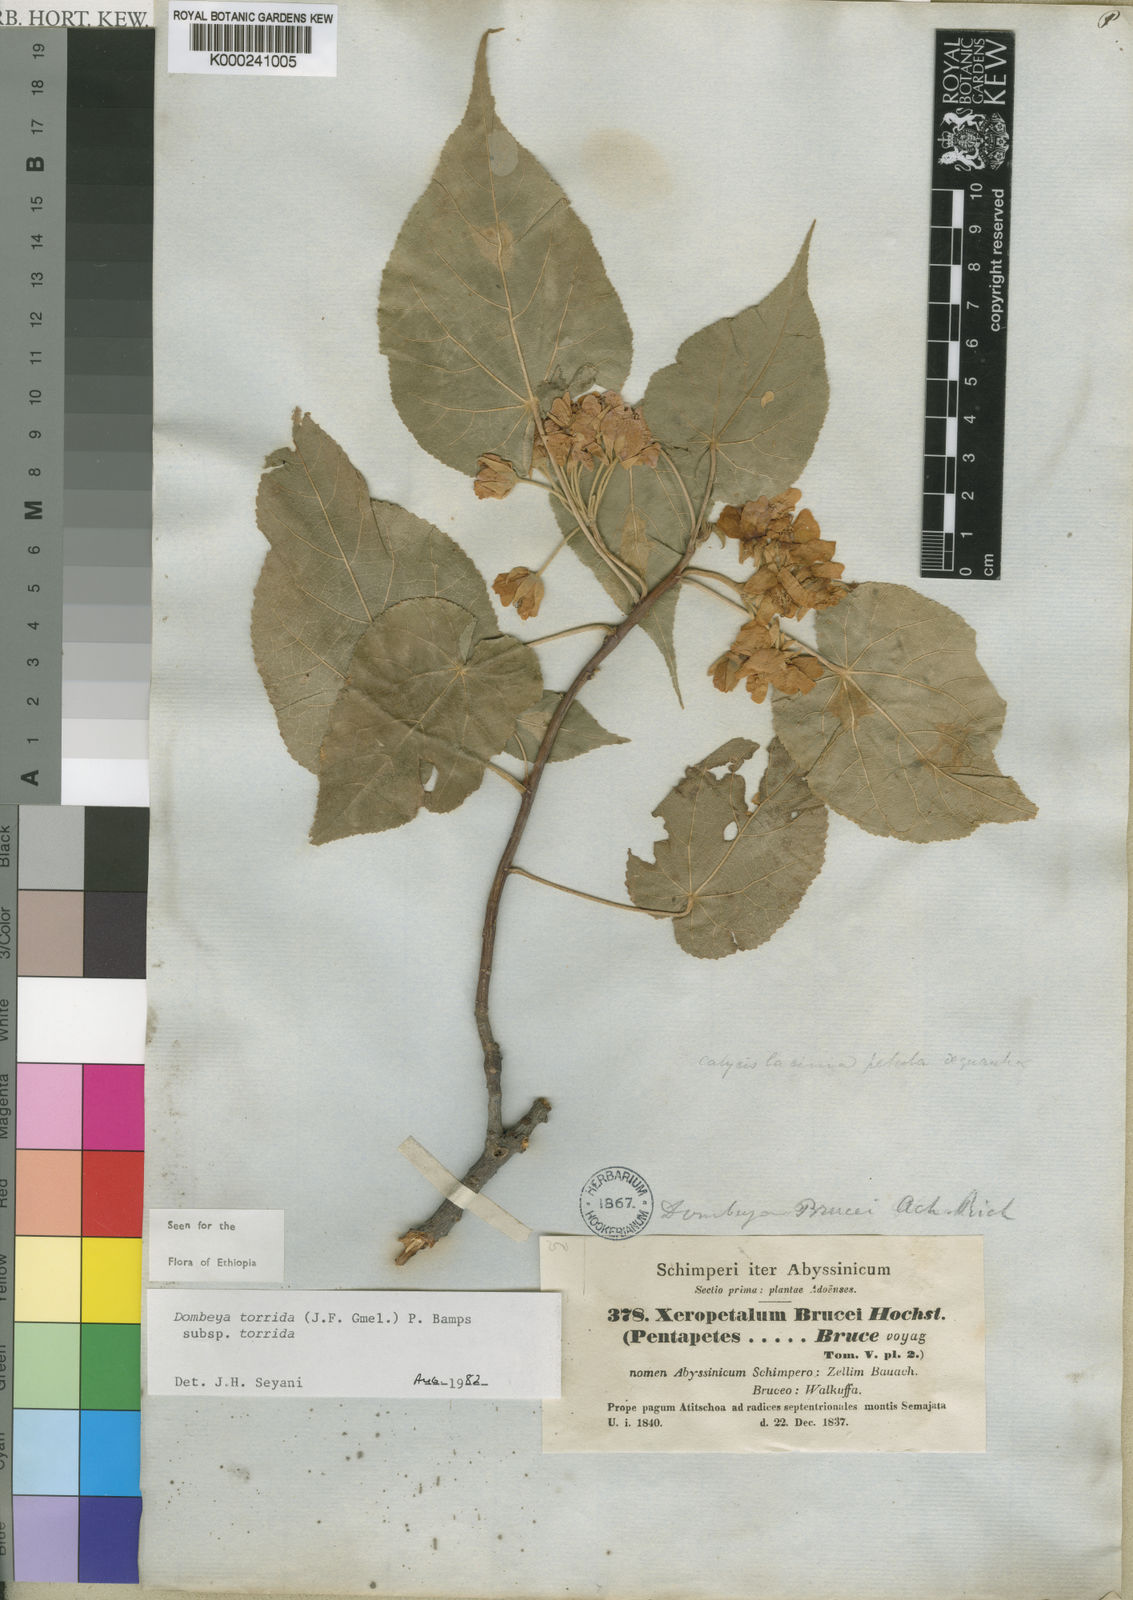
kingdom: Plantae
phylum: Tracheophyta
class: Magnoliopsida
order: Malvales
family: Malvaceae
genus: Dombeya
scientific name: Dombeya torrida
